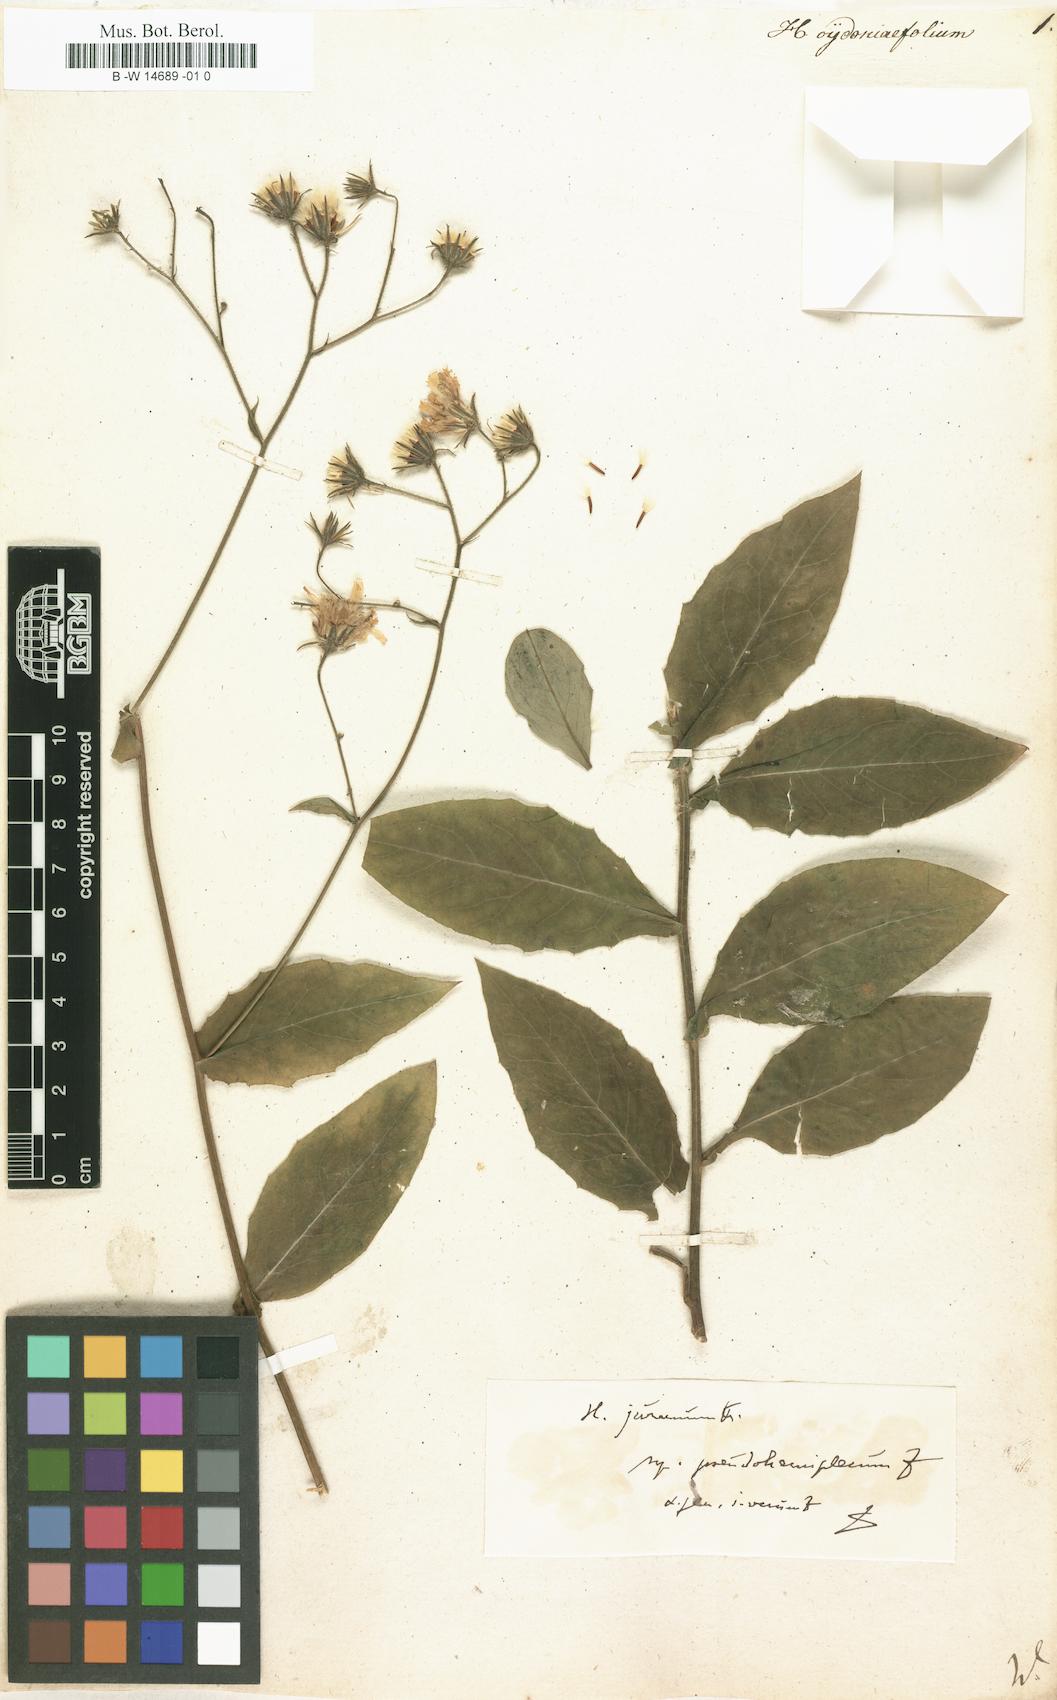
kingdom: Plantae
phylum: Tracheophyta
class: Magnoliopsida
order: Asterales
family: Asteraceae
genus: Hieracium
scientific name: Hieracium cydoniifolium
